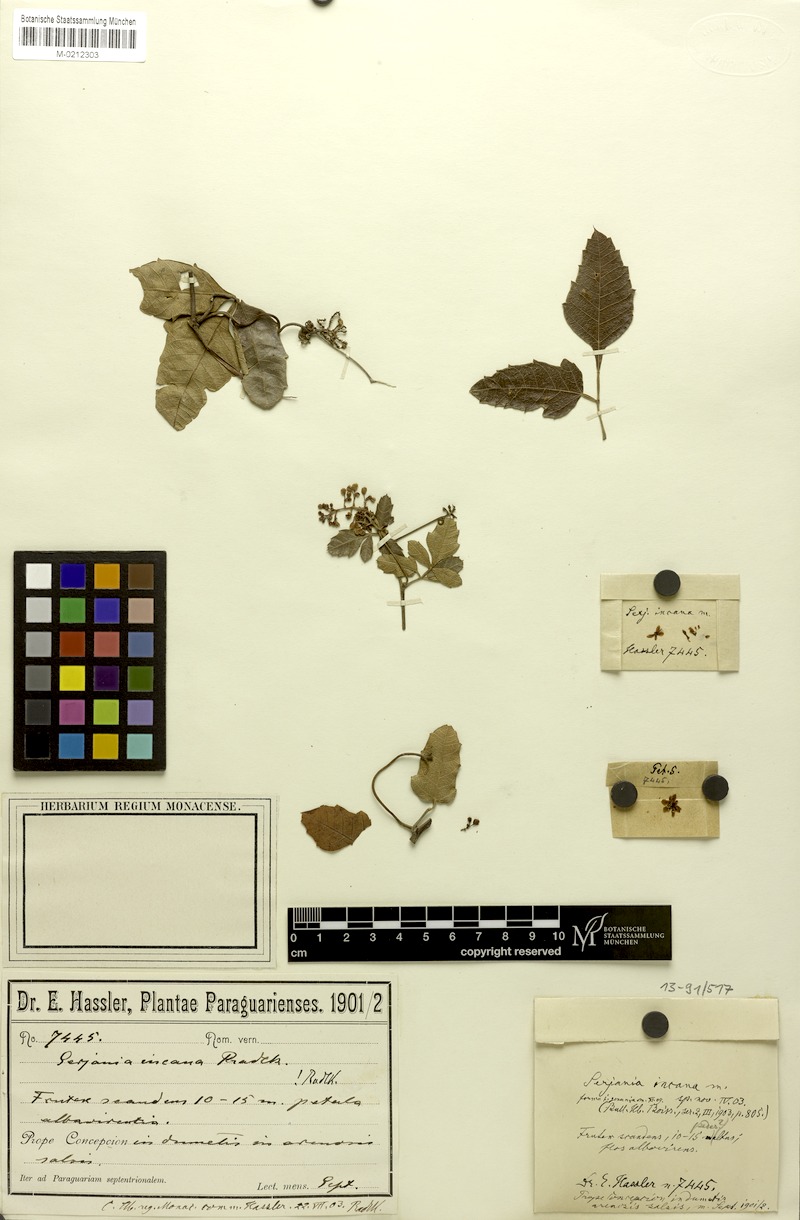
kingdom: Plantae
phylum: Tracheophyta
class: Magnoliopsida
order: Sapindales
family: Sapindaceae
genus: Serjania
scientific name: Serjania incana
